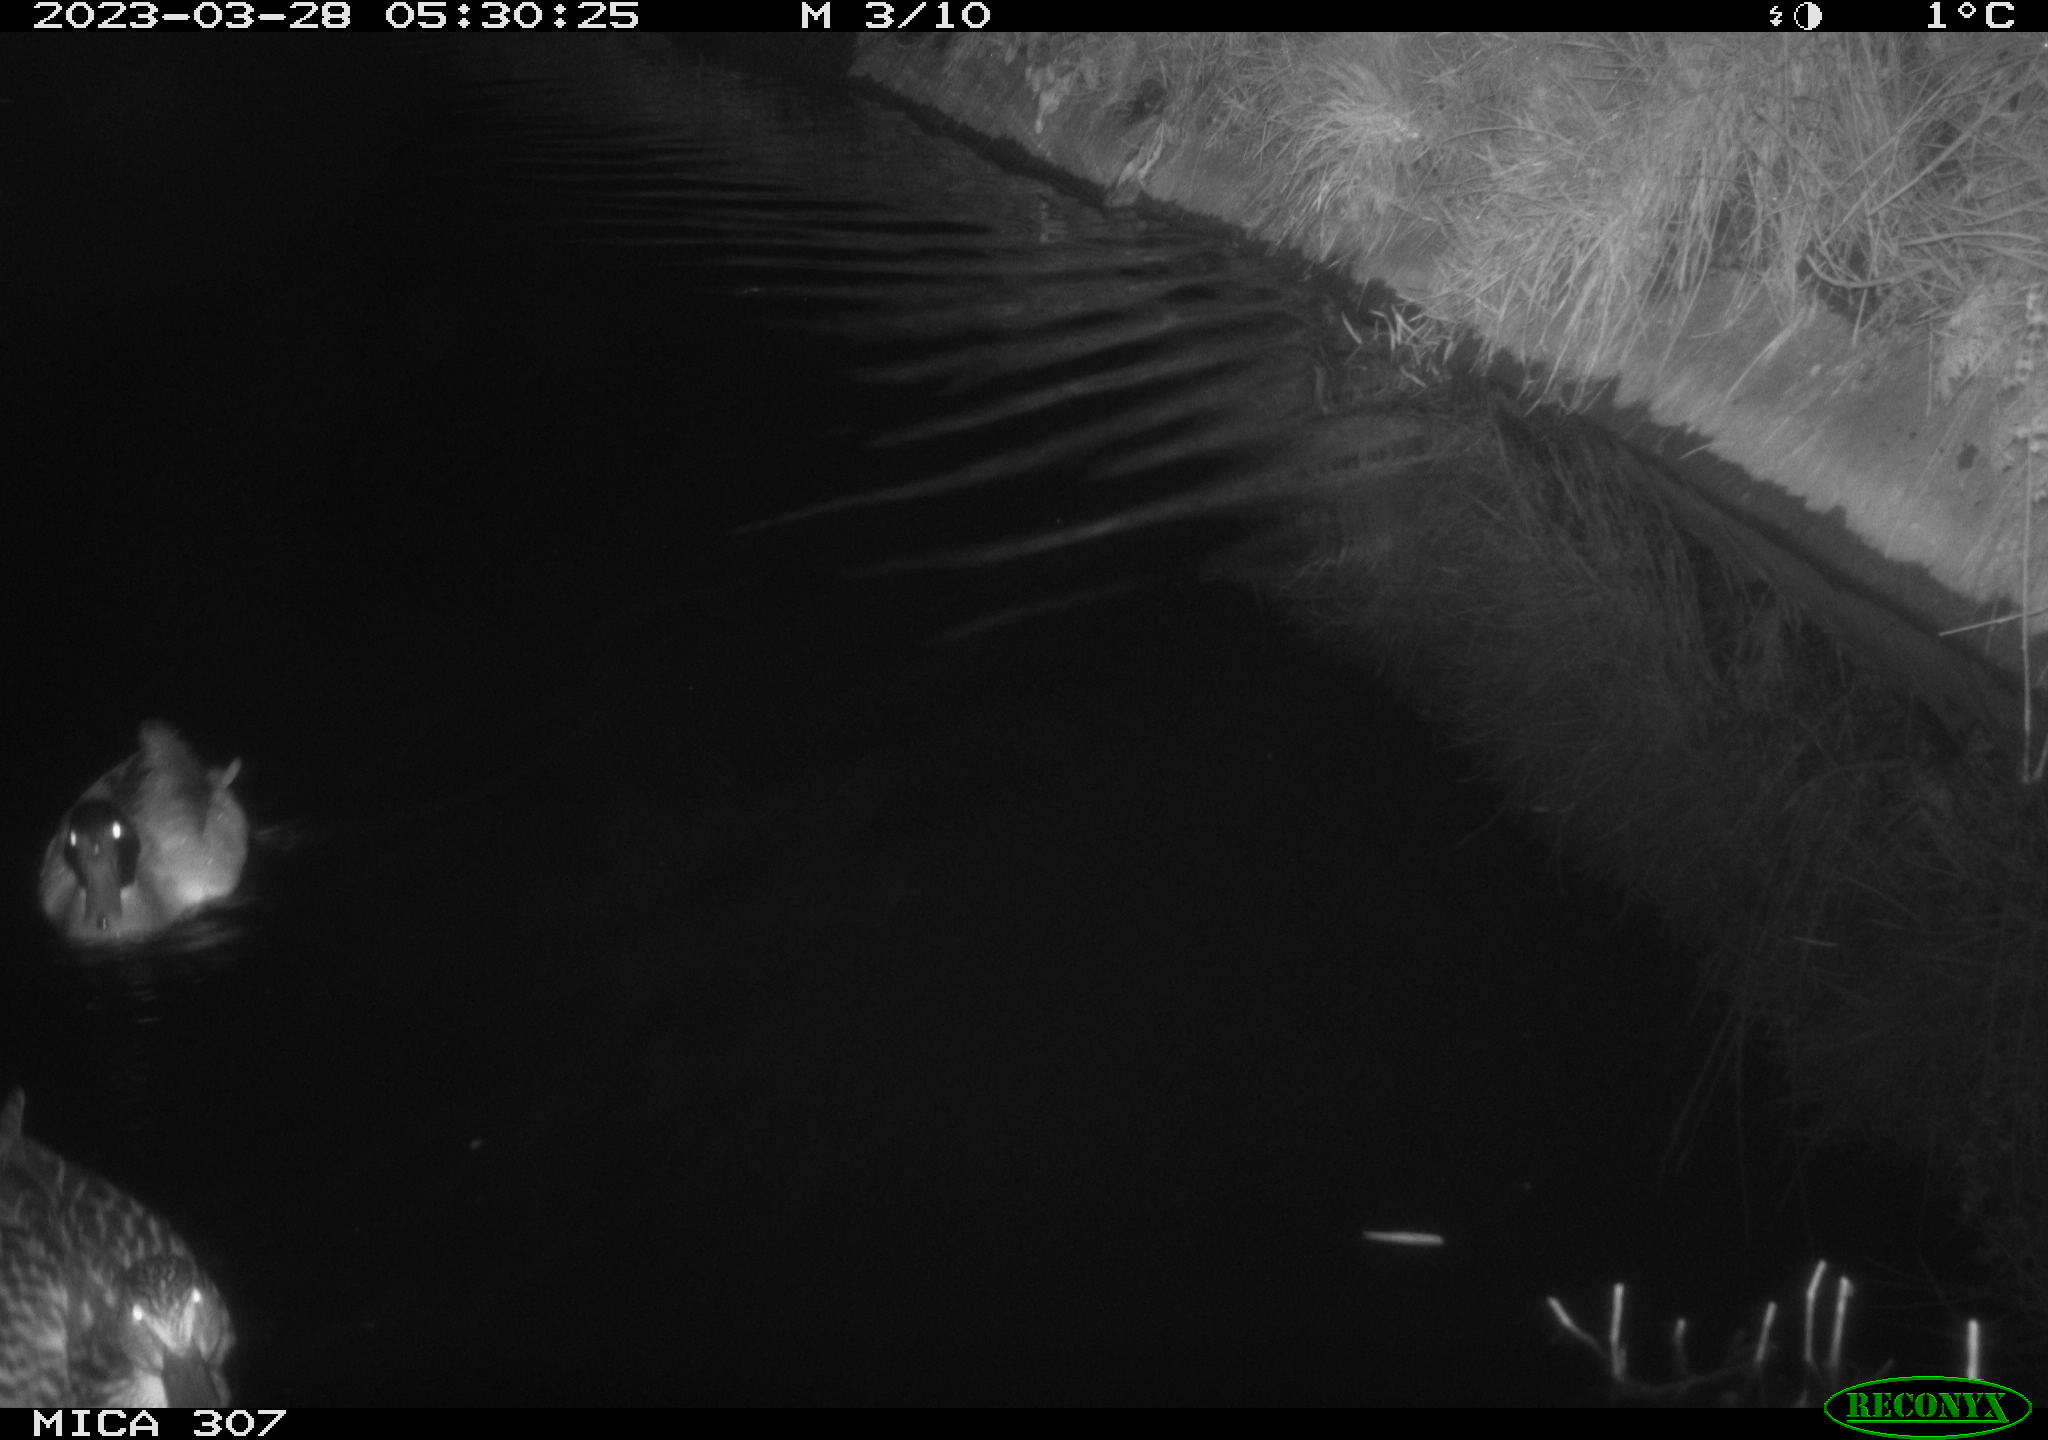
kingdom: Animalia
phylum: Chordata
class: Aves
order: Anseriformes
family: Anatidae
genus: Anas
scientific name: Anas
